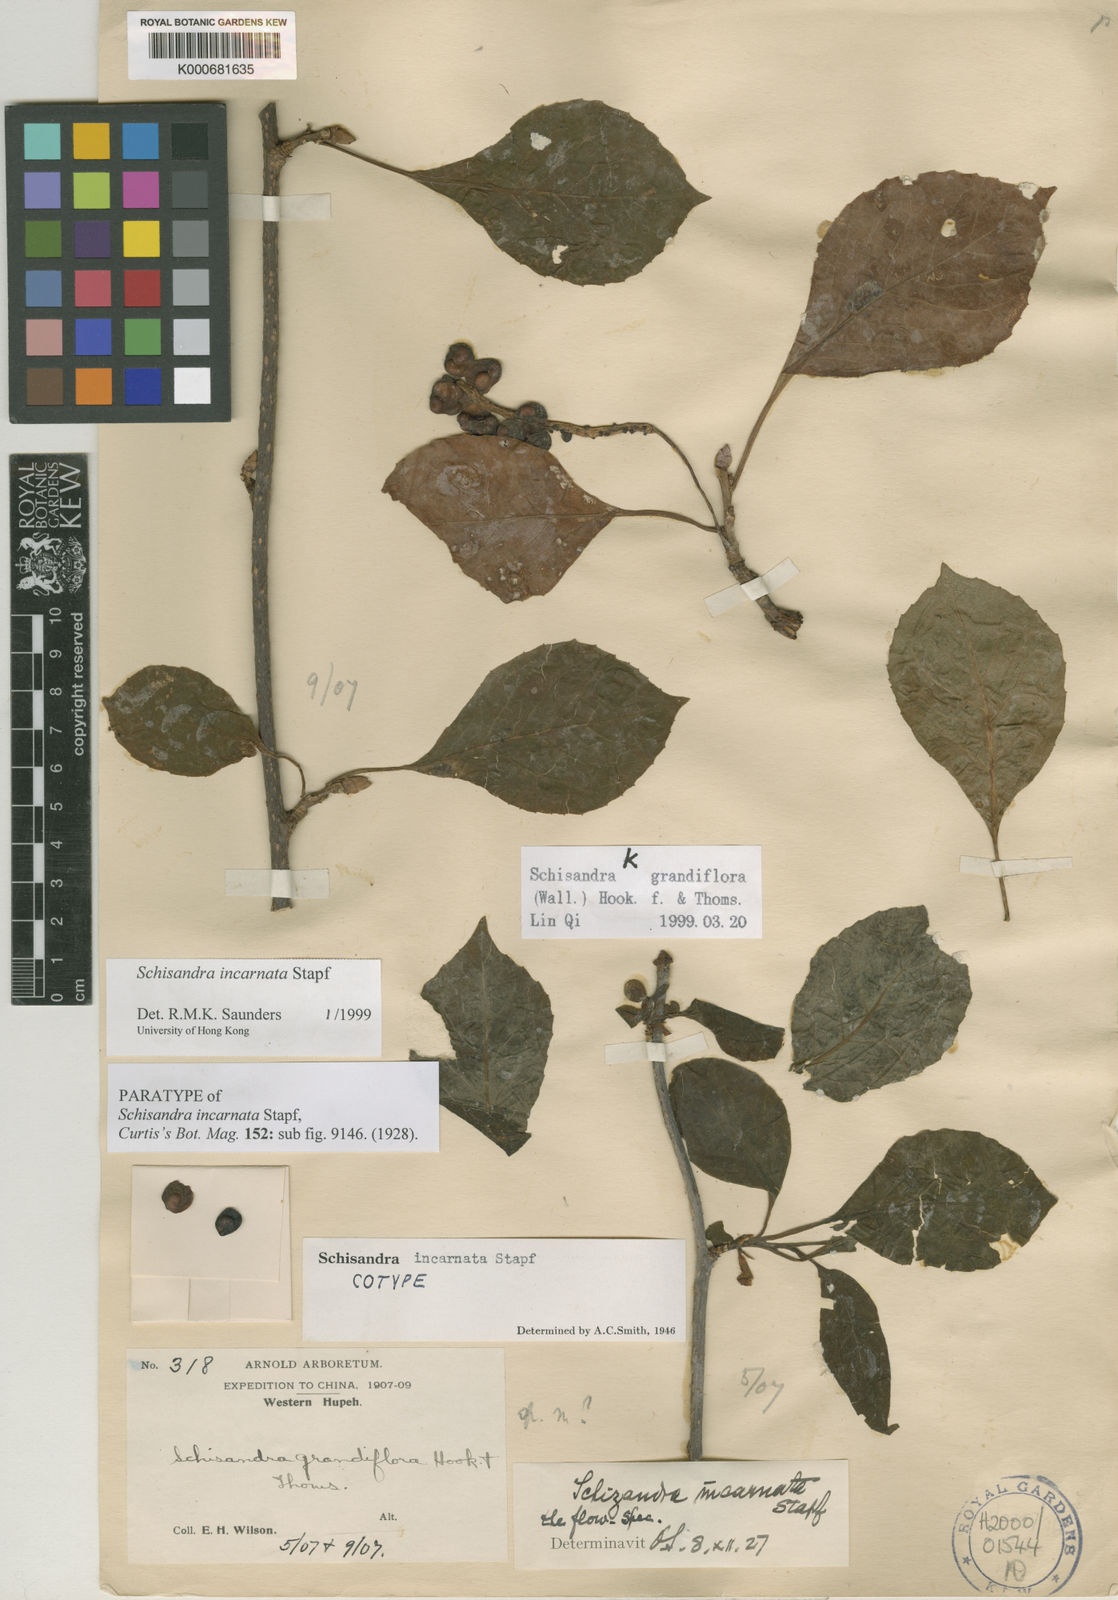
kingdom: Plantae
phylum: Tracheophyta
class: Magnoliopsida
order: Austrobaileyales
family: Schisandraceae
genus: Schisandra
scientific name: Schisandra incarnata
